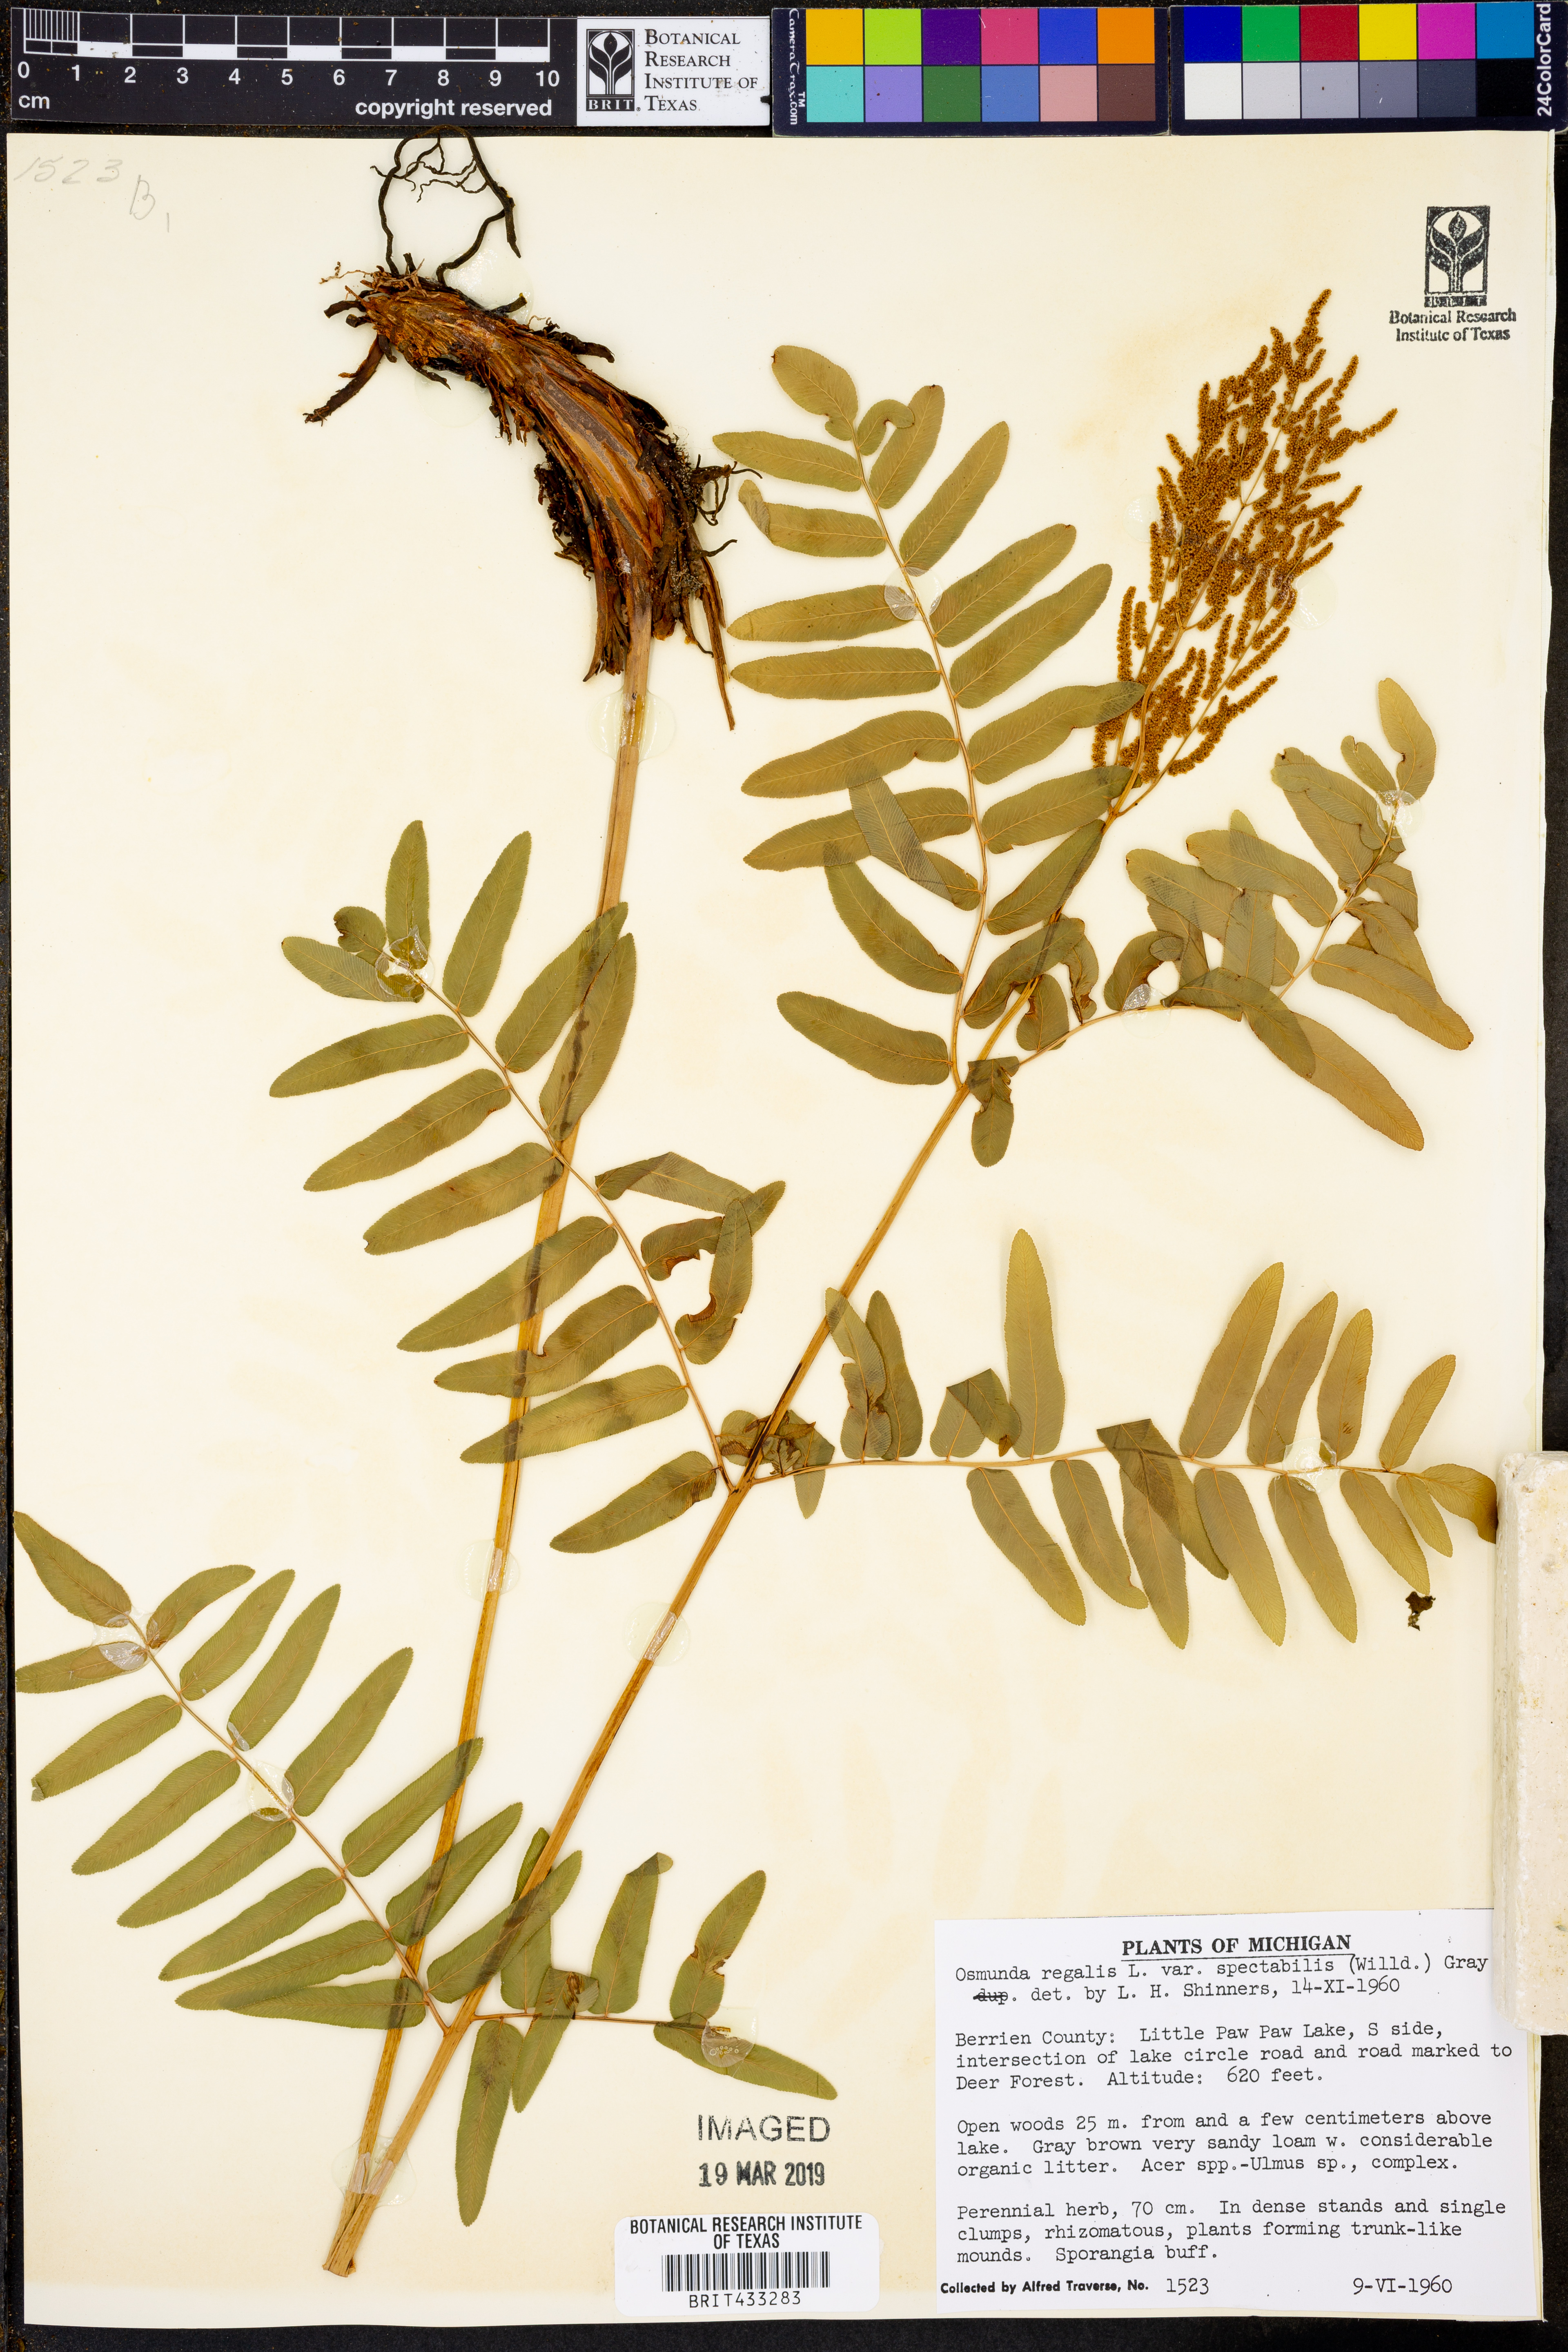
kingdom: Plantae
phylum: Tracheophyta
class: Polypodiopsida
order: Osmundales
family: Osmundaceae
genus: Osmunda
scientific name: Osmunda spectabilis
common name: American royal fern
